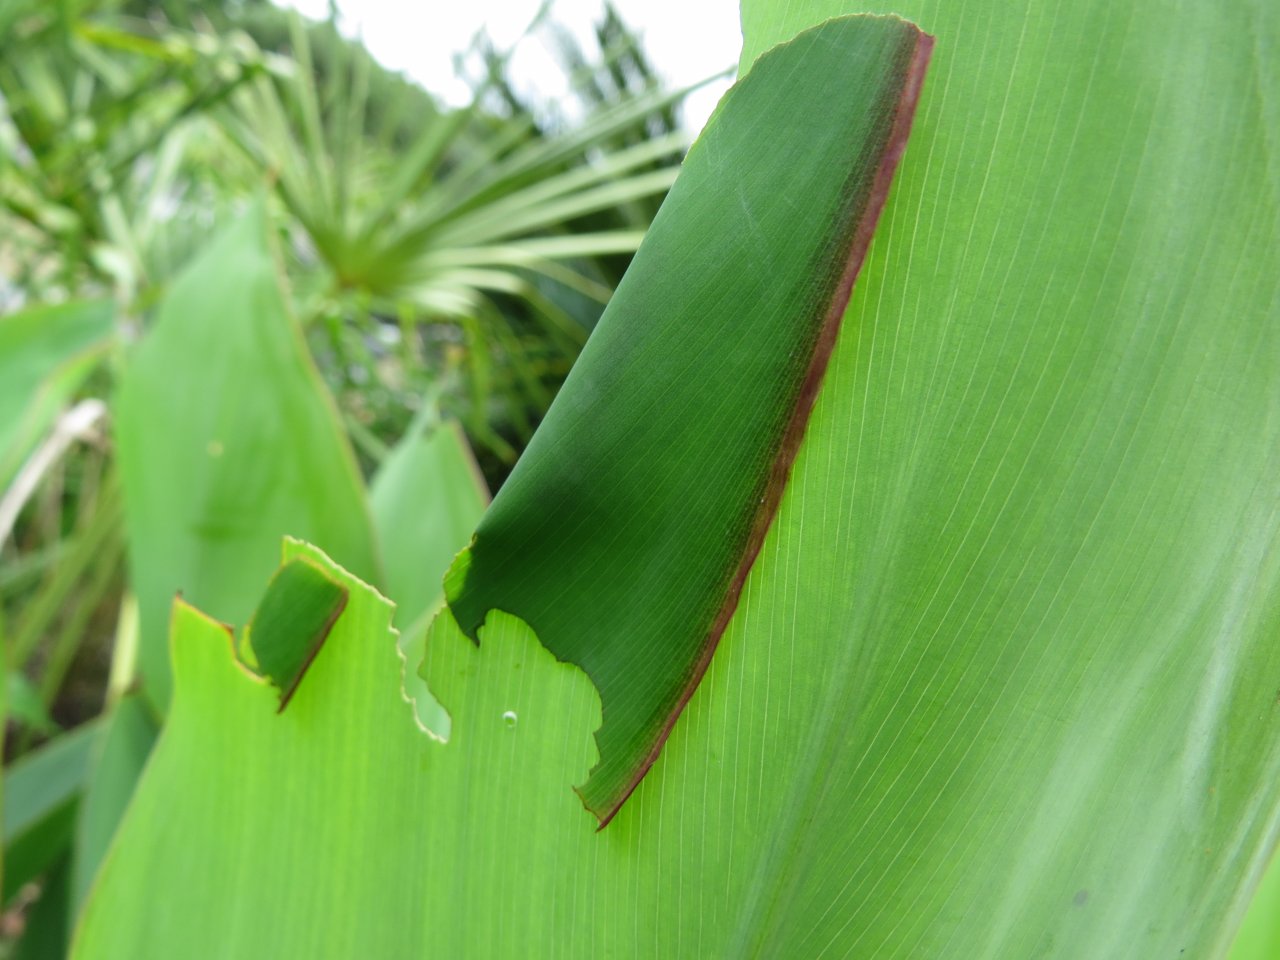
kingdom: Animalia
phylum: Arthropoda
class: Insecta
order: Lepidoptera
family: Hesperiidae
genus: Calpodes
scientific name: Calpodes ethlius
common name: Brazilian Skipper
